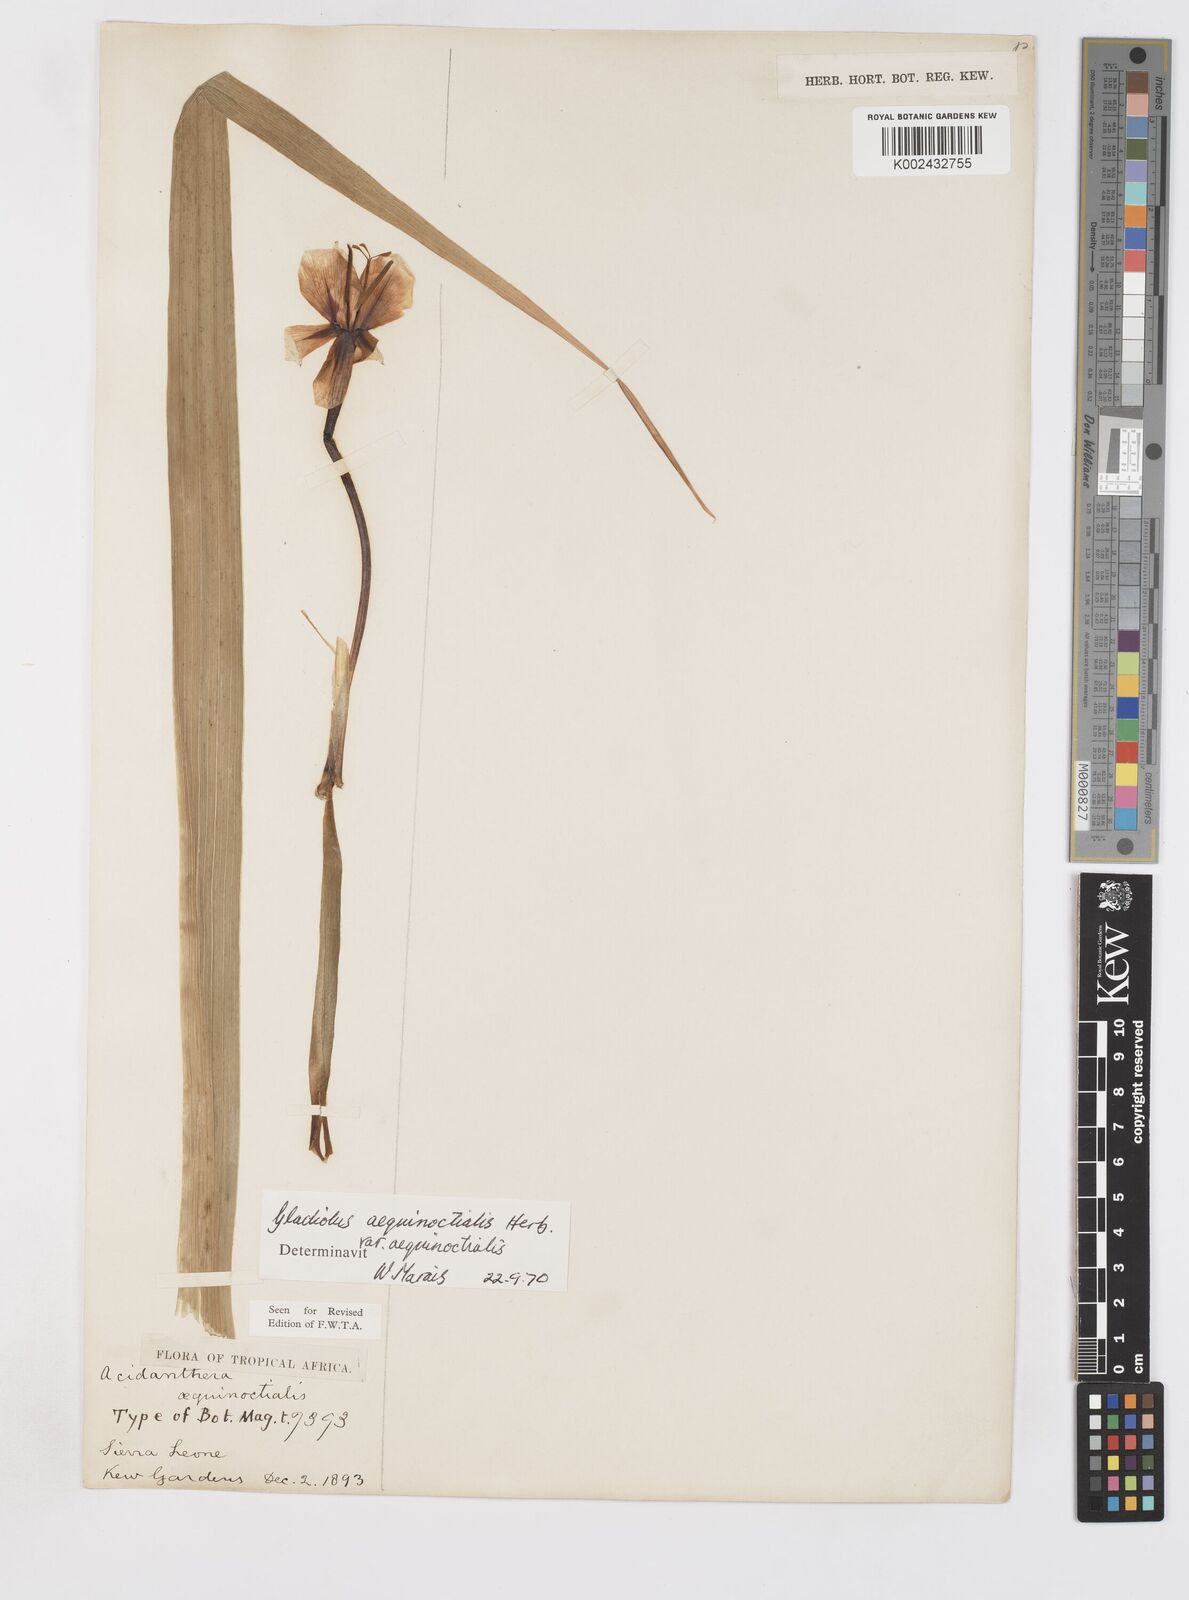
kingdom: Plantae
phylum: Tracheophyta
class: Liliopsida
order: Asparagales
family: Iridaceae
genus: Gladiolus
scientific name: Gladiolus aequinoctialis
